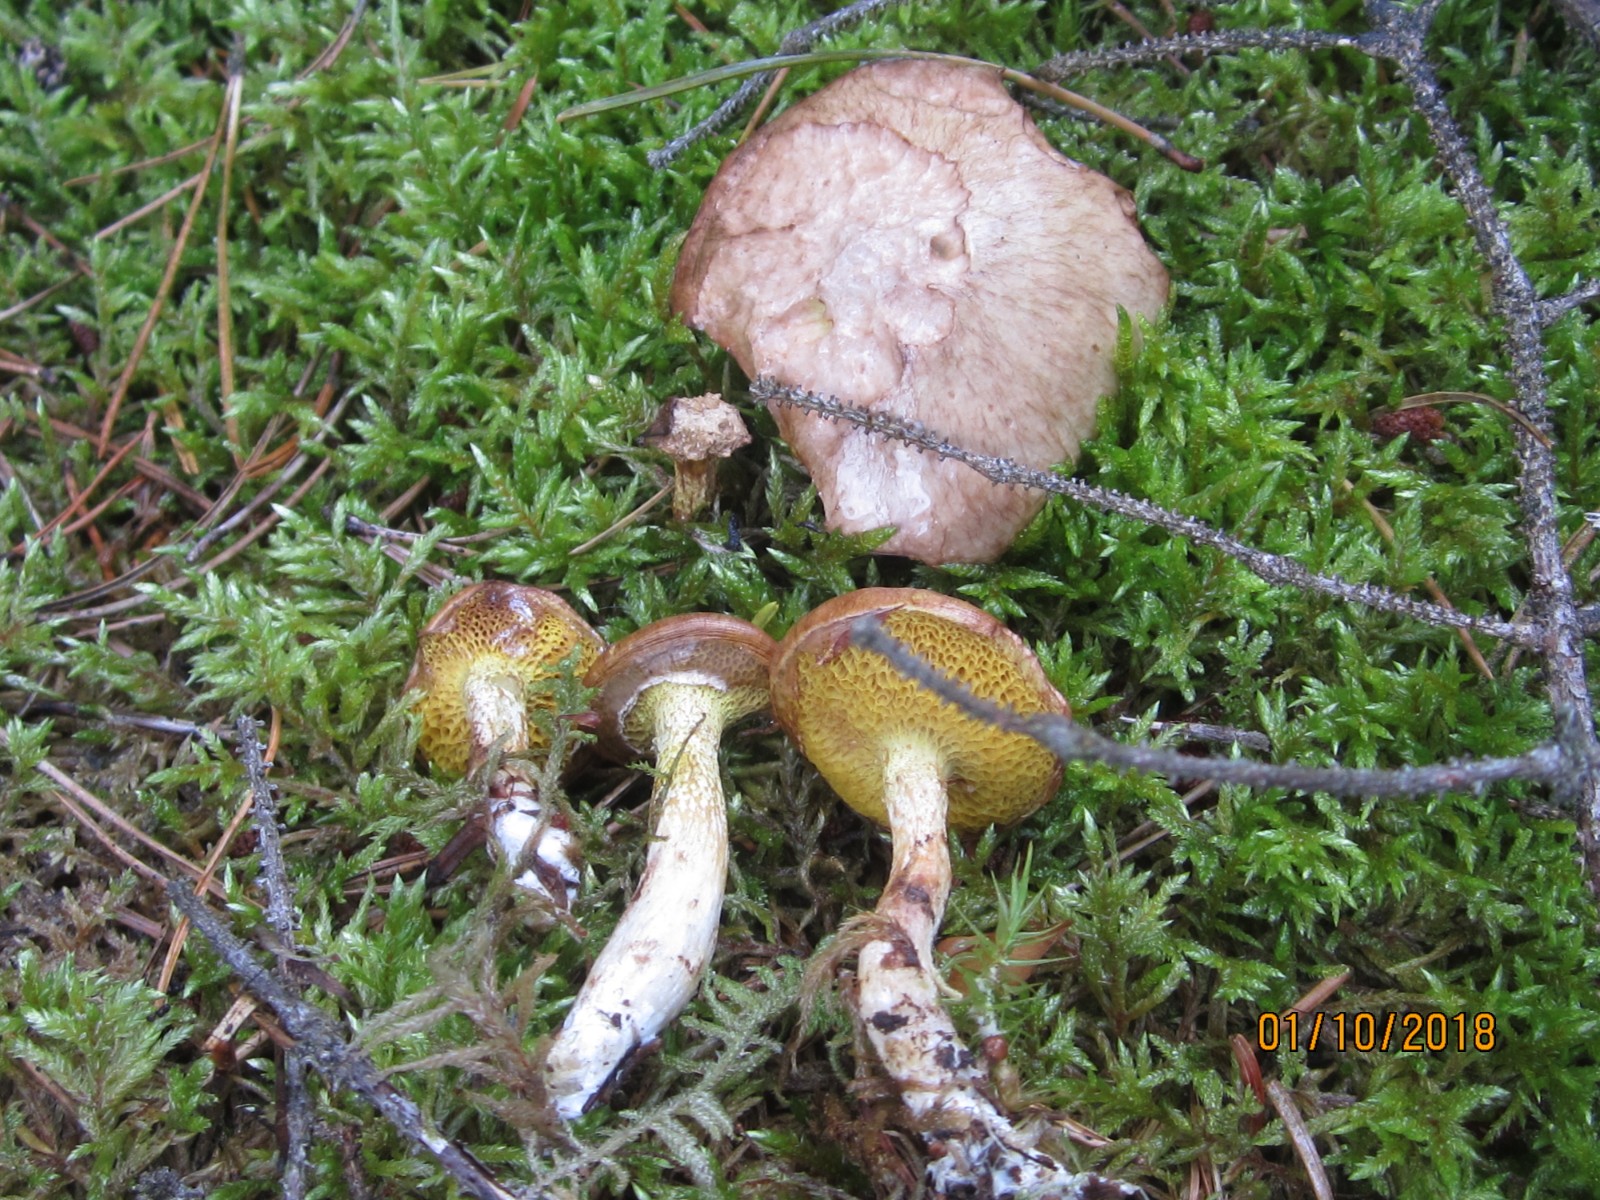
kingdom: Fungi
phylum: Basidiomycota
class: Agaricomycetes
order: Boletales
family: Suillaceae
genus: Suillus
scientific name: Suillus flavidus
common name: mose-slimrørhat
